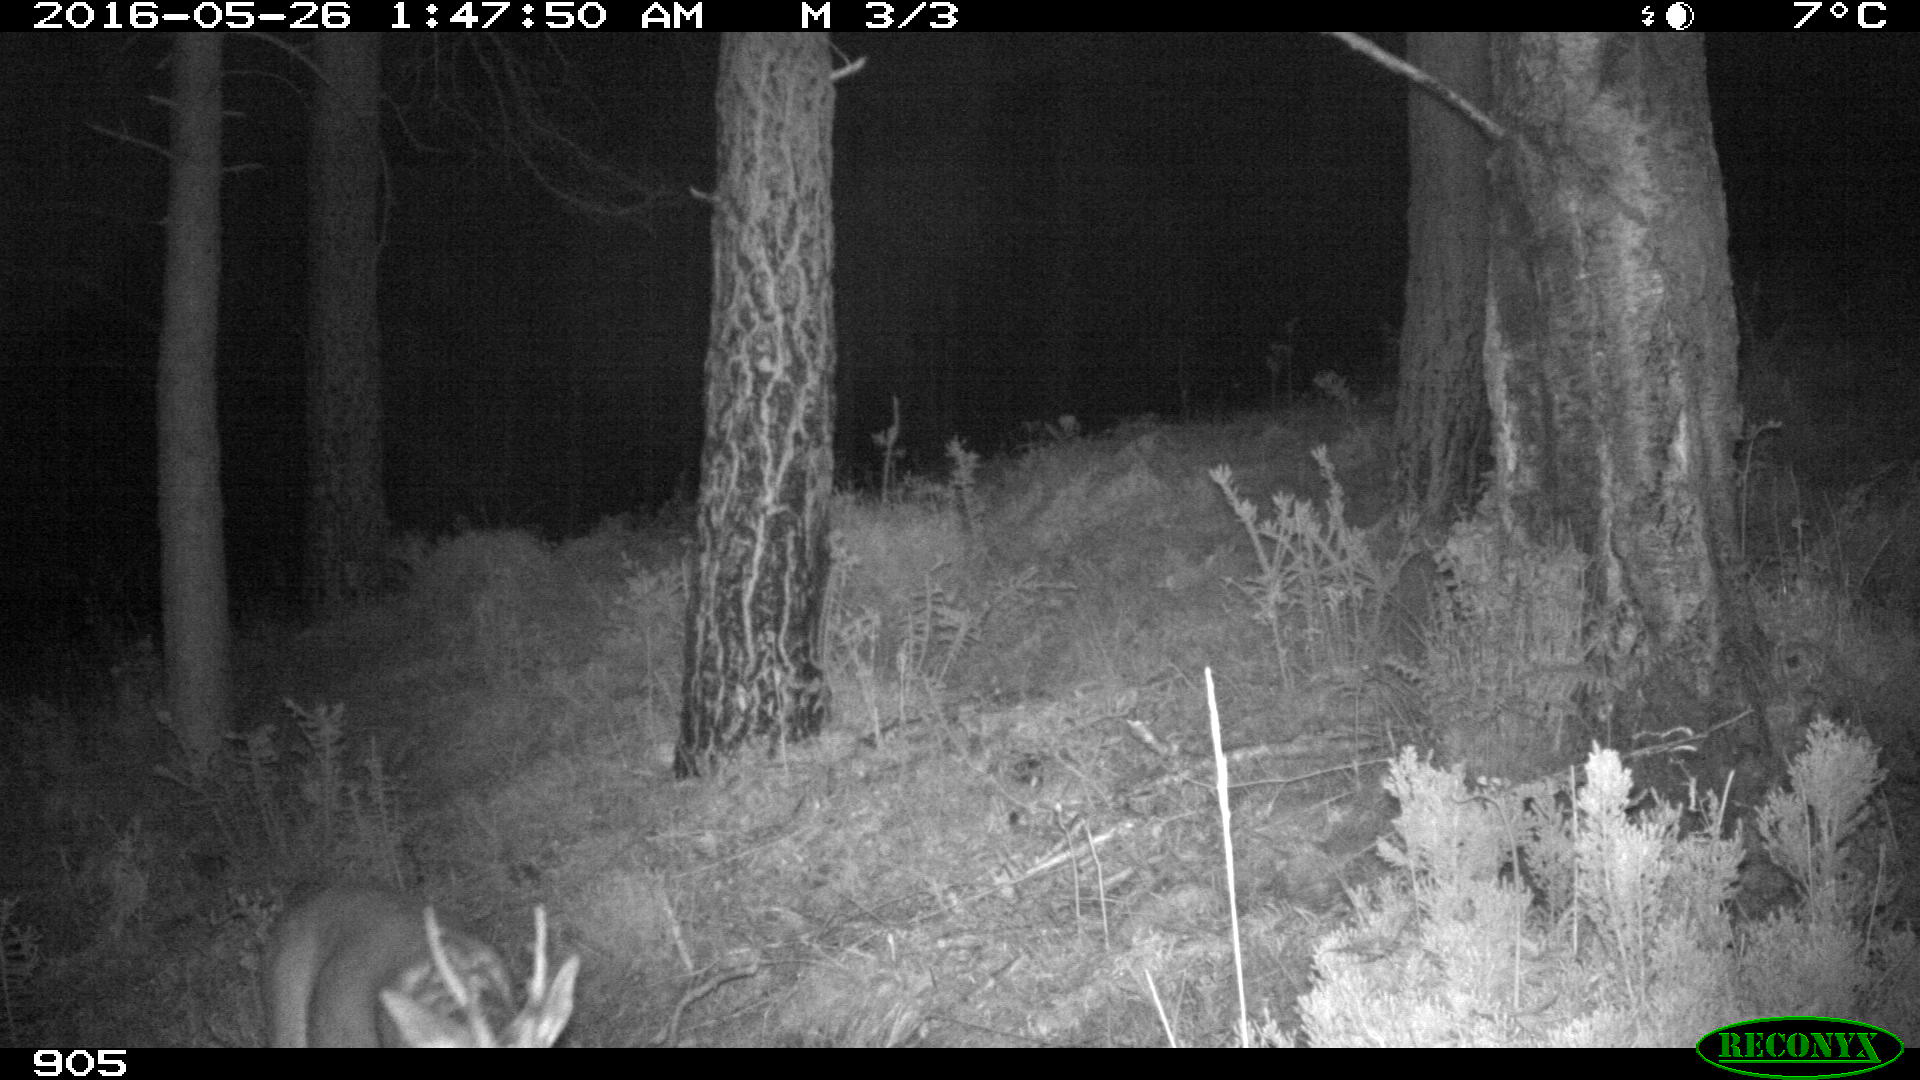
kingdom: Animalia
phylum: Chordata
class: Mammalia
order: Artiodactyla
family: Cervidae
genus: Capreolus
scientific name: Capreolus capreolus
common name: Western roe deer
